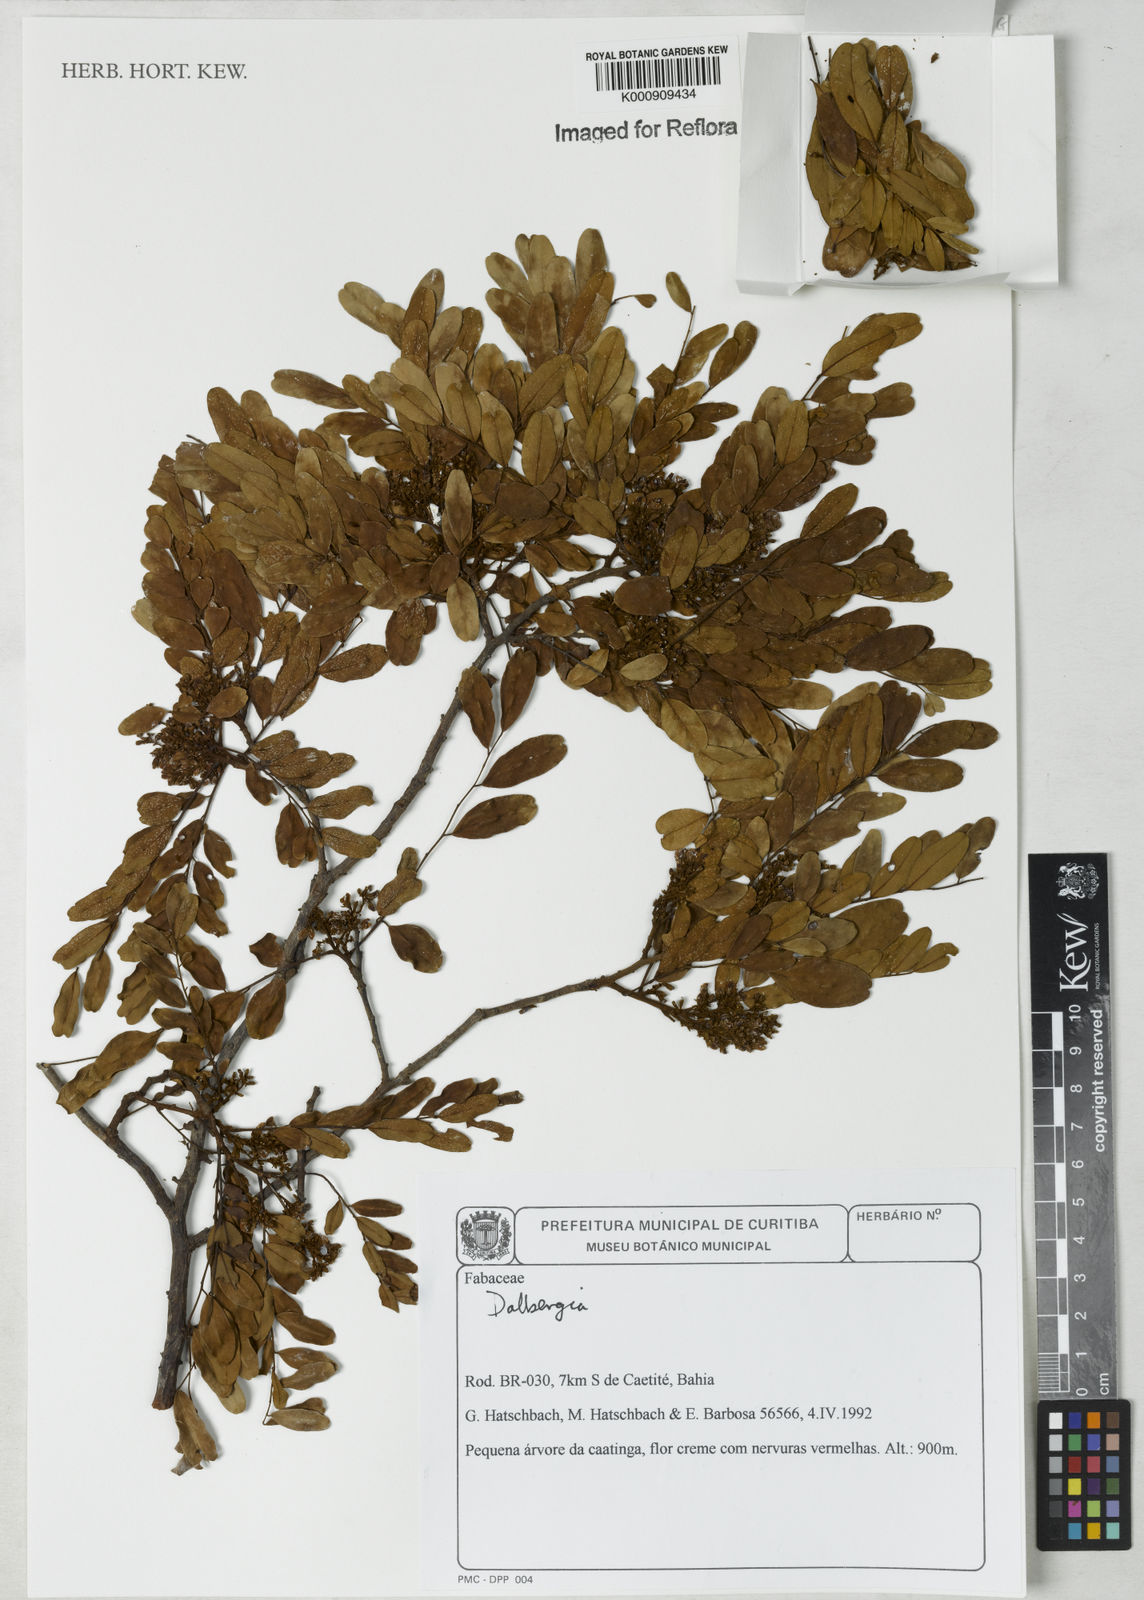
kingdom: Plantae
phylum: Tracheophyta
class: Magnoliopsida
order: Fabales
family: Fabaceae
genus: Dalbergia
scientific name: Dalbergia
